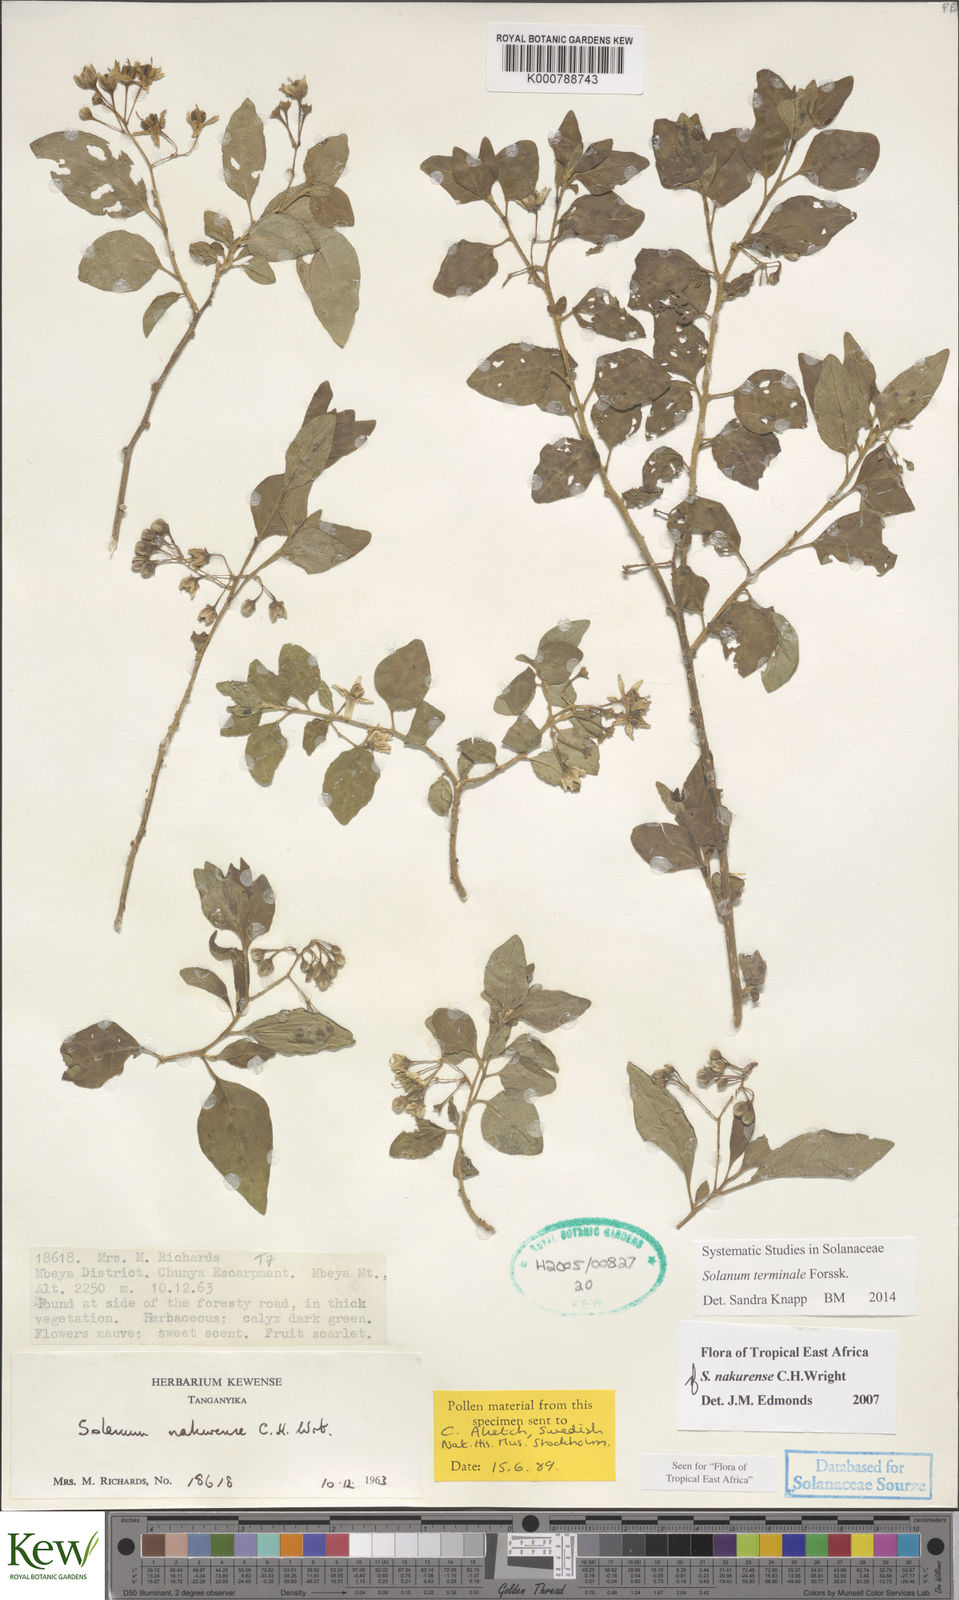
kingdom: Plantae
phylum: Tracheophyta
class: Magnoliopsida
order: Solanales
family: Solanaceae
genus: Solanum
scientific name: Solanum terminale
